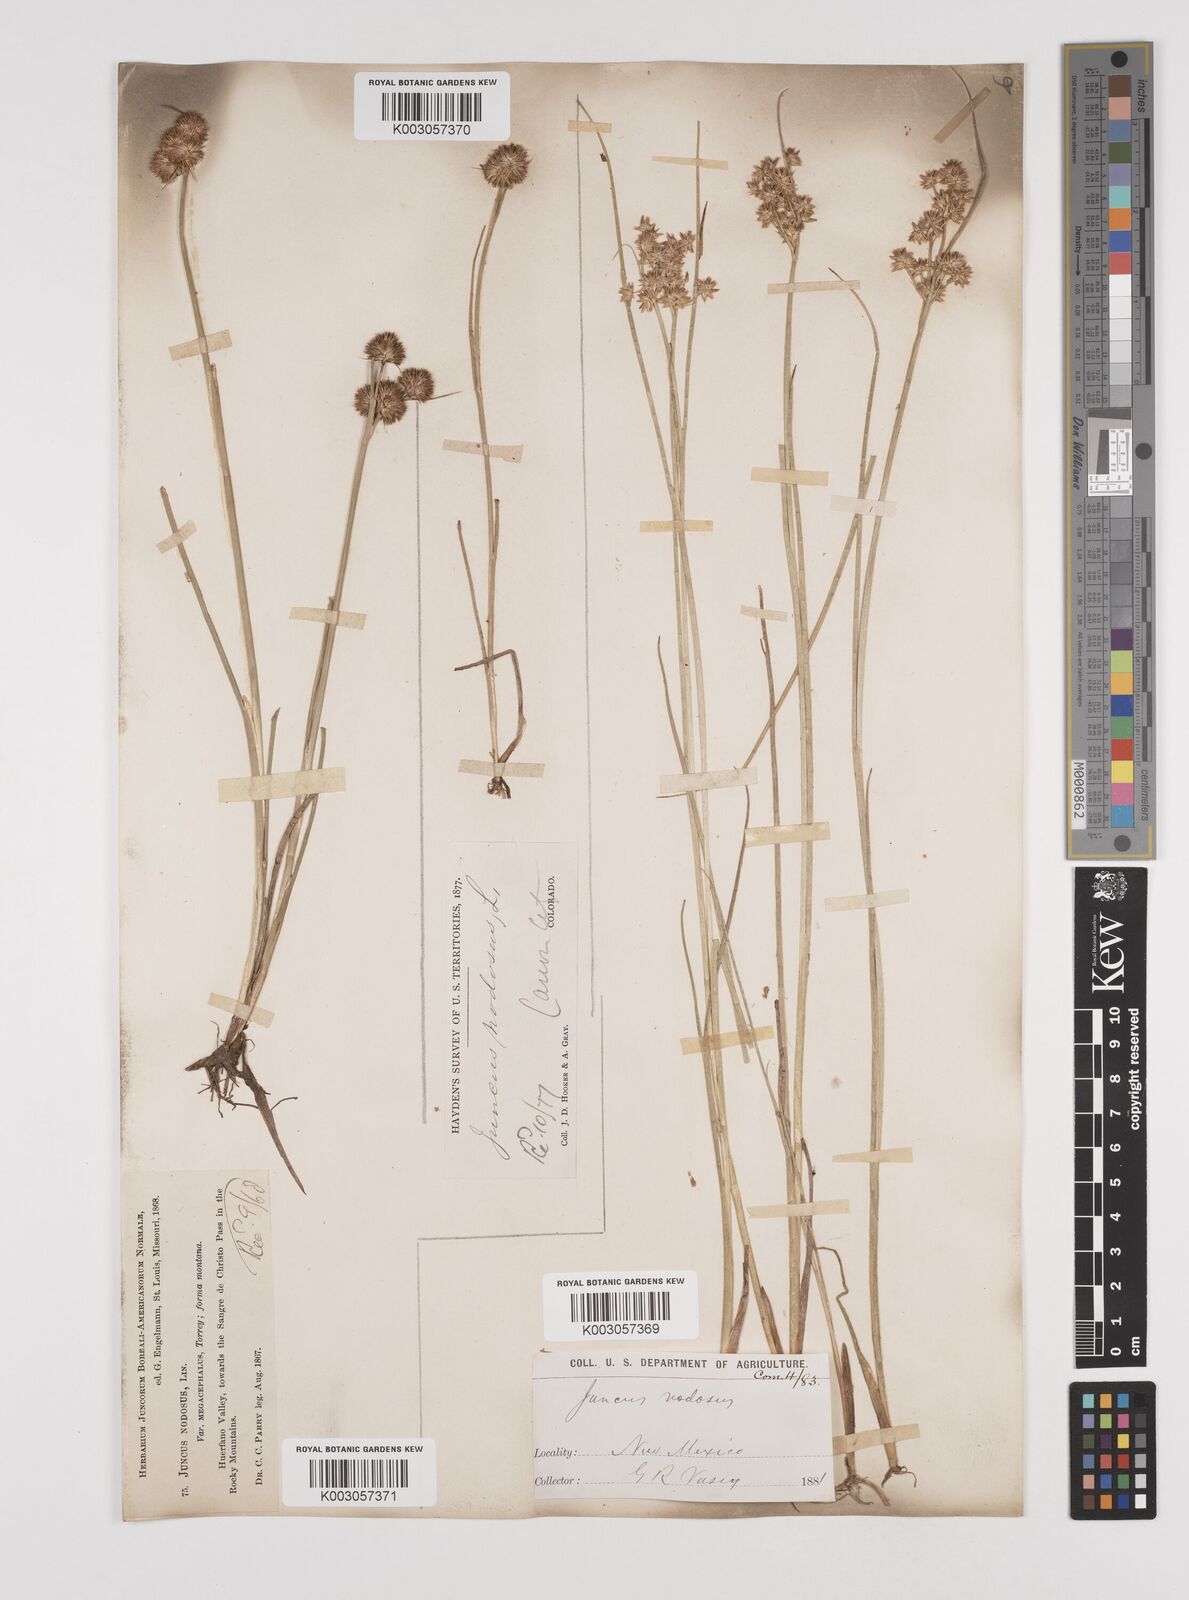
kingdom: Plantae
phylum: Tracheophyta
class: Liliopsida
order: Poales
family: Juncaceae
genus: Juncus
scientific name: Juncus nodosus
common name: Knotted rush
